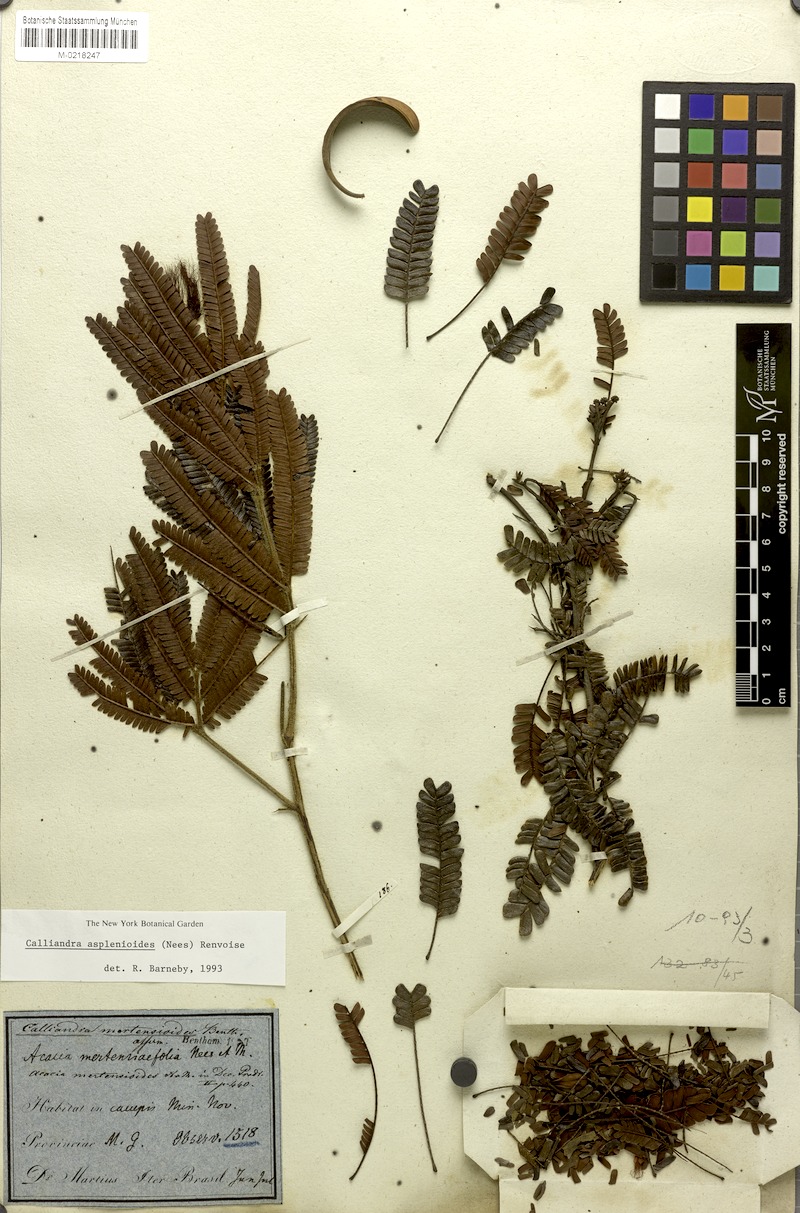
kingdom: Plantae
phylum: Tracheophyta
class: Magnoliopsida
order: Fabales
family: Fabaceae
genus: Calliandra
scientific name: Calliandra asplenioides
